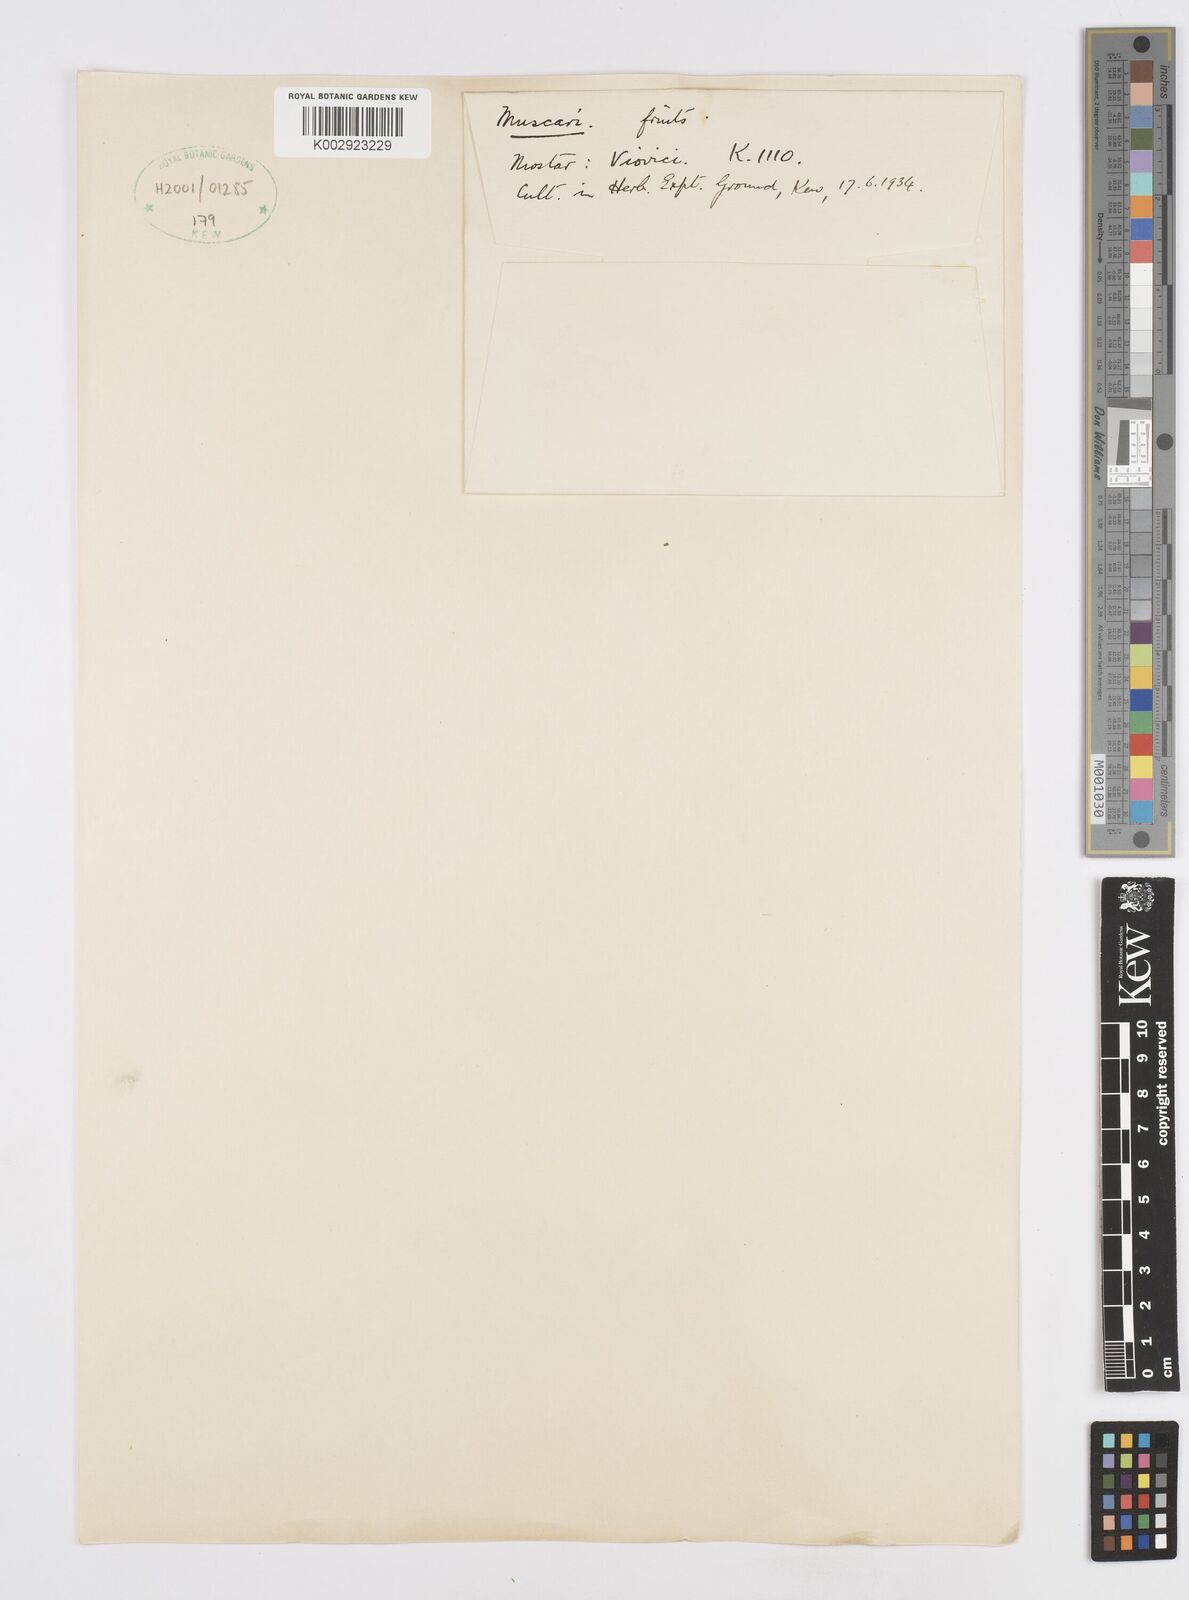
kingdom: Plantae
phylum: Tracheophyta
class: Liliopsida
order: Asparagales
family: Asparagaceae
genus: Muscari
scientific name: Muscari
